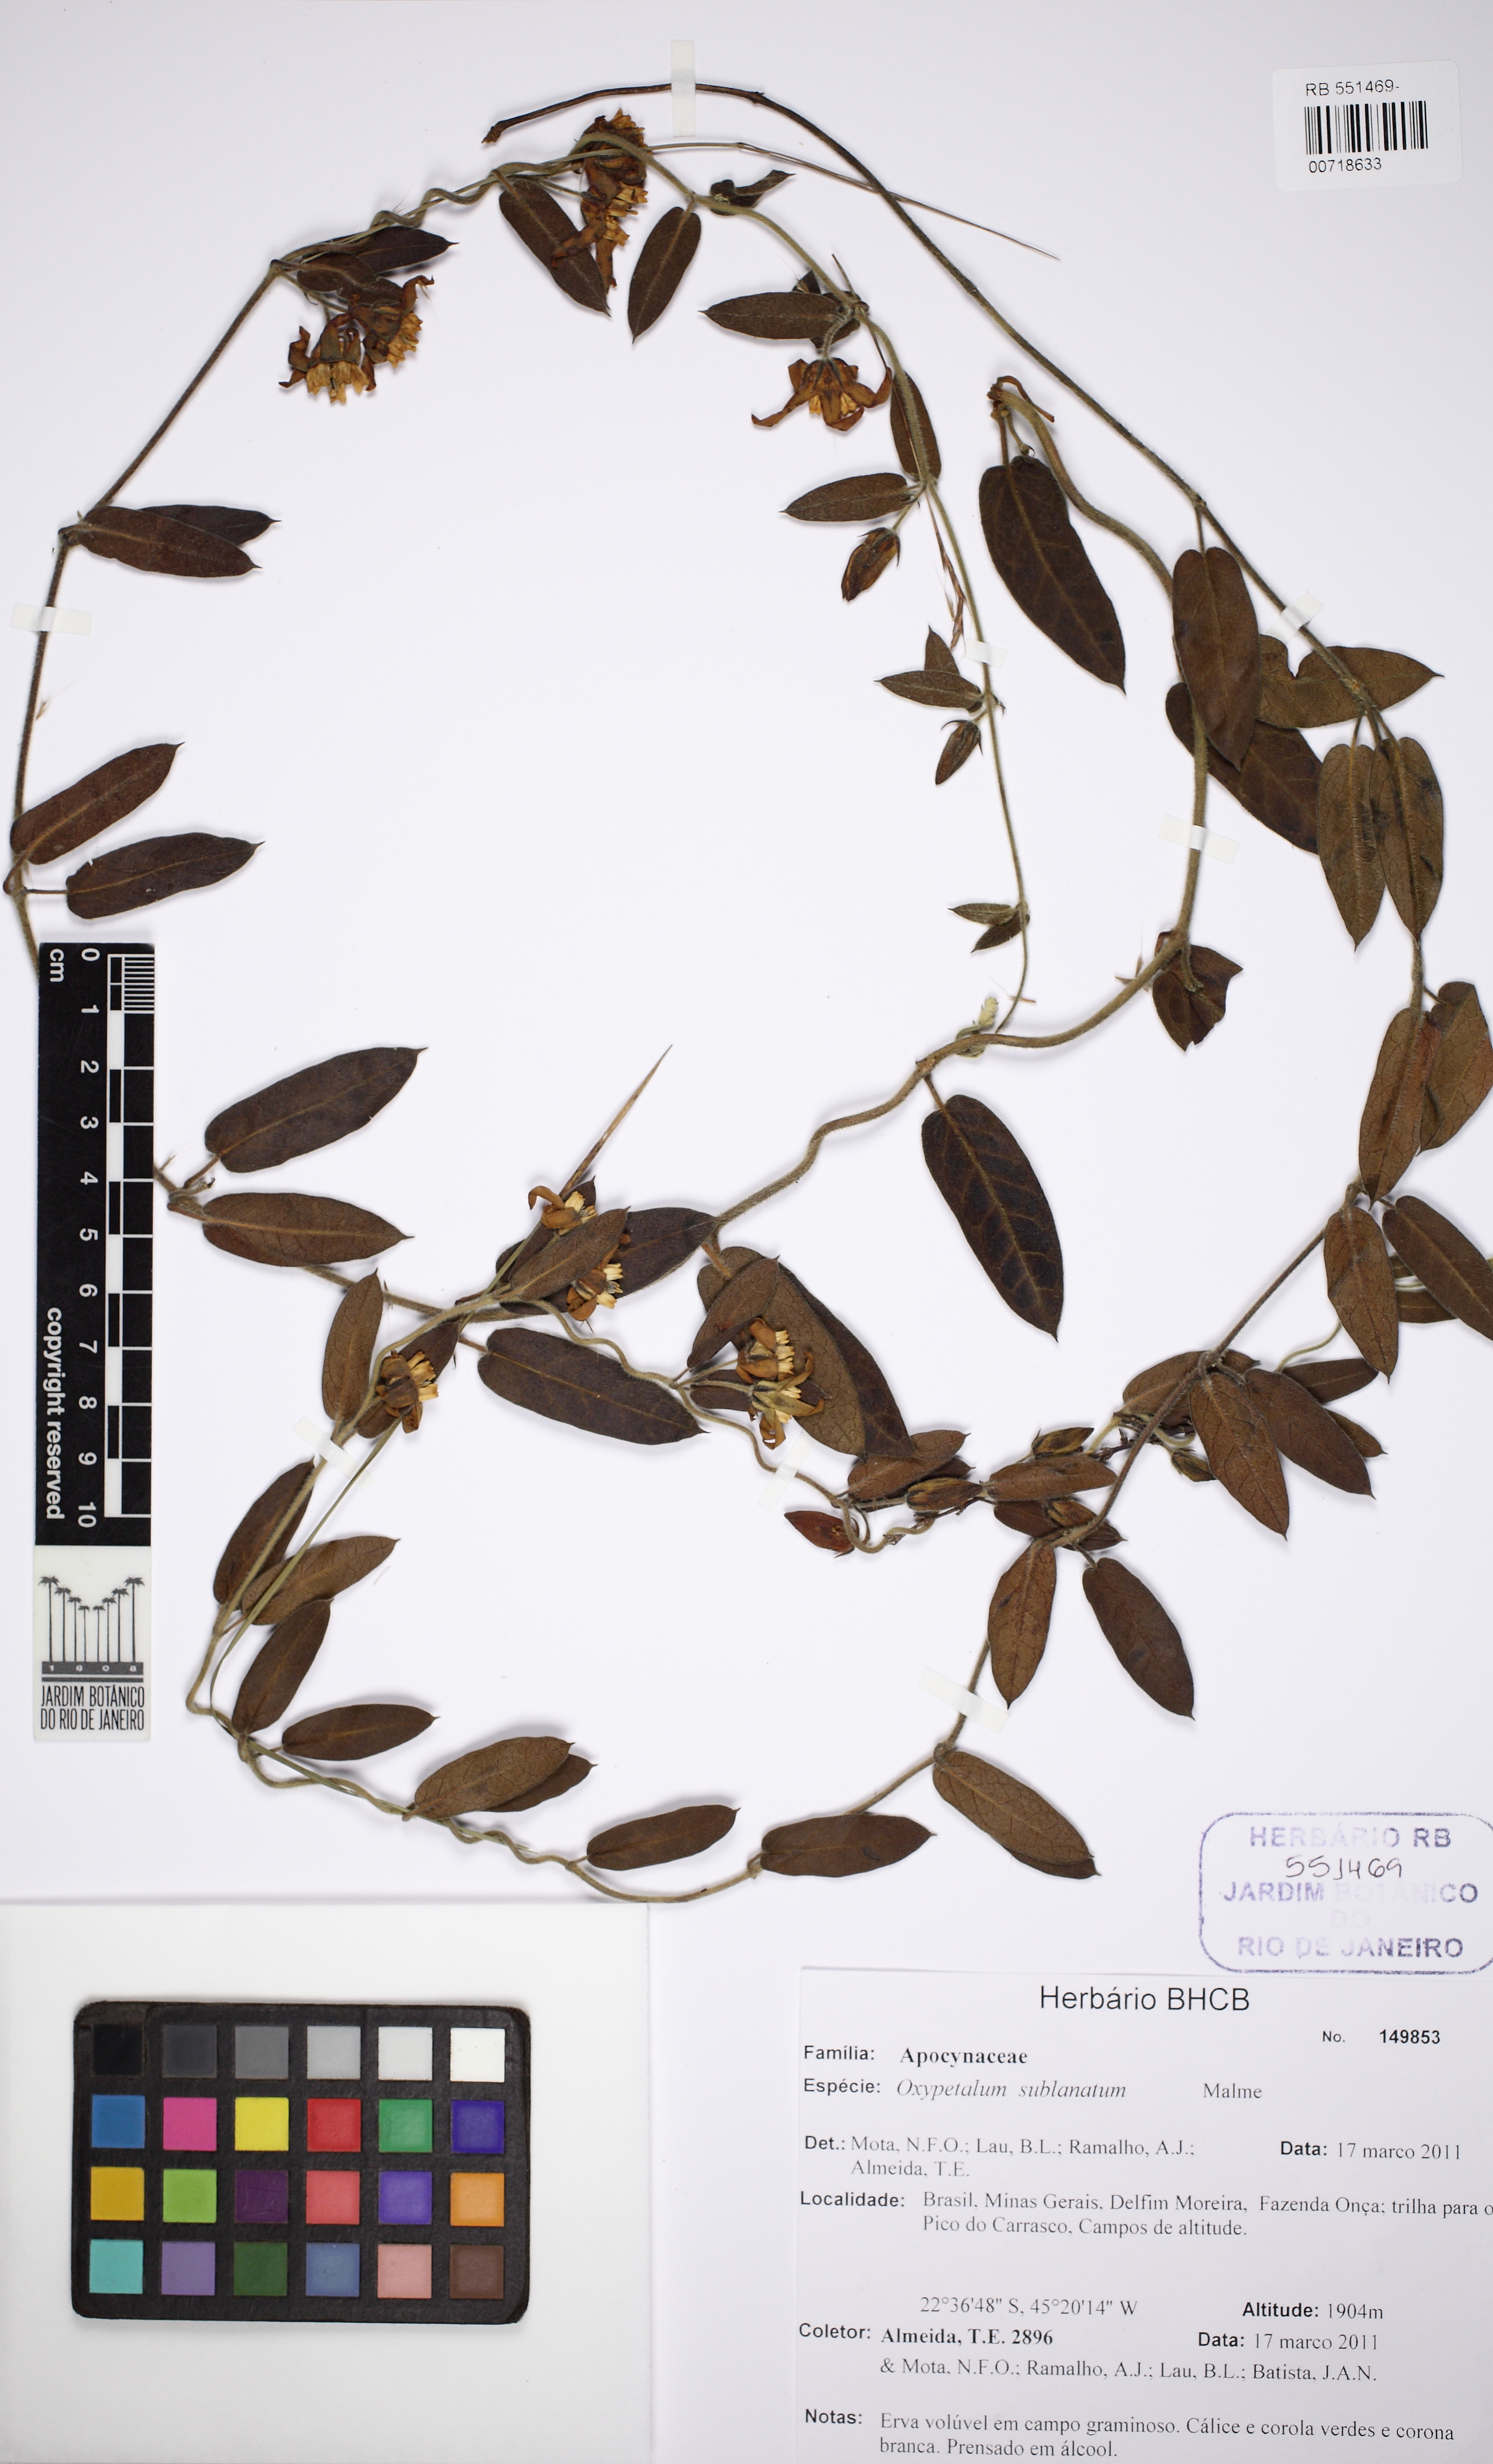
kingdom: Plantae
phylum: Tracheophyta
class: Magnoliopsida
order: Gentianales
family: Apocynaceae
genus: Oxypetalum
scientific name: Oxypetalum sublanatum
